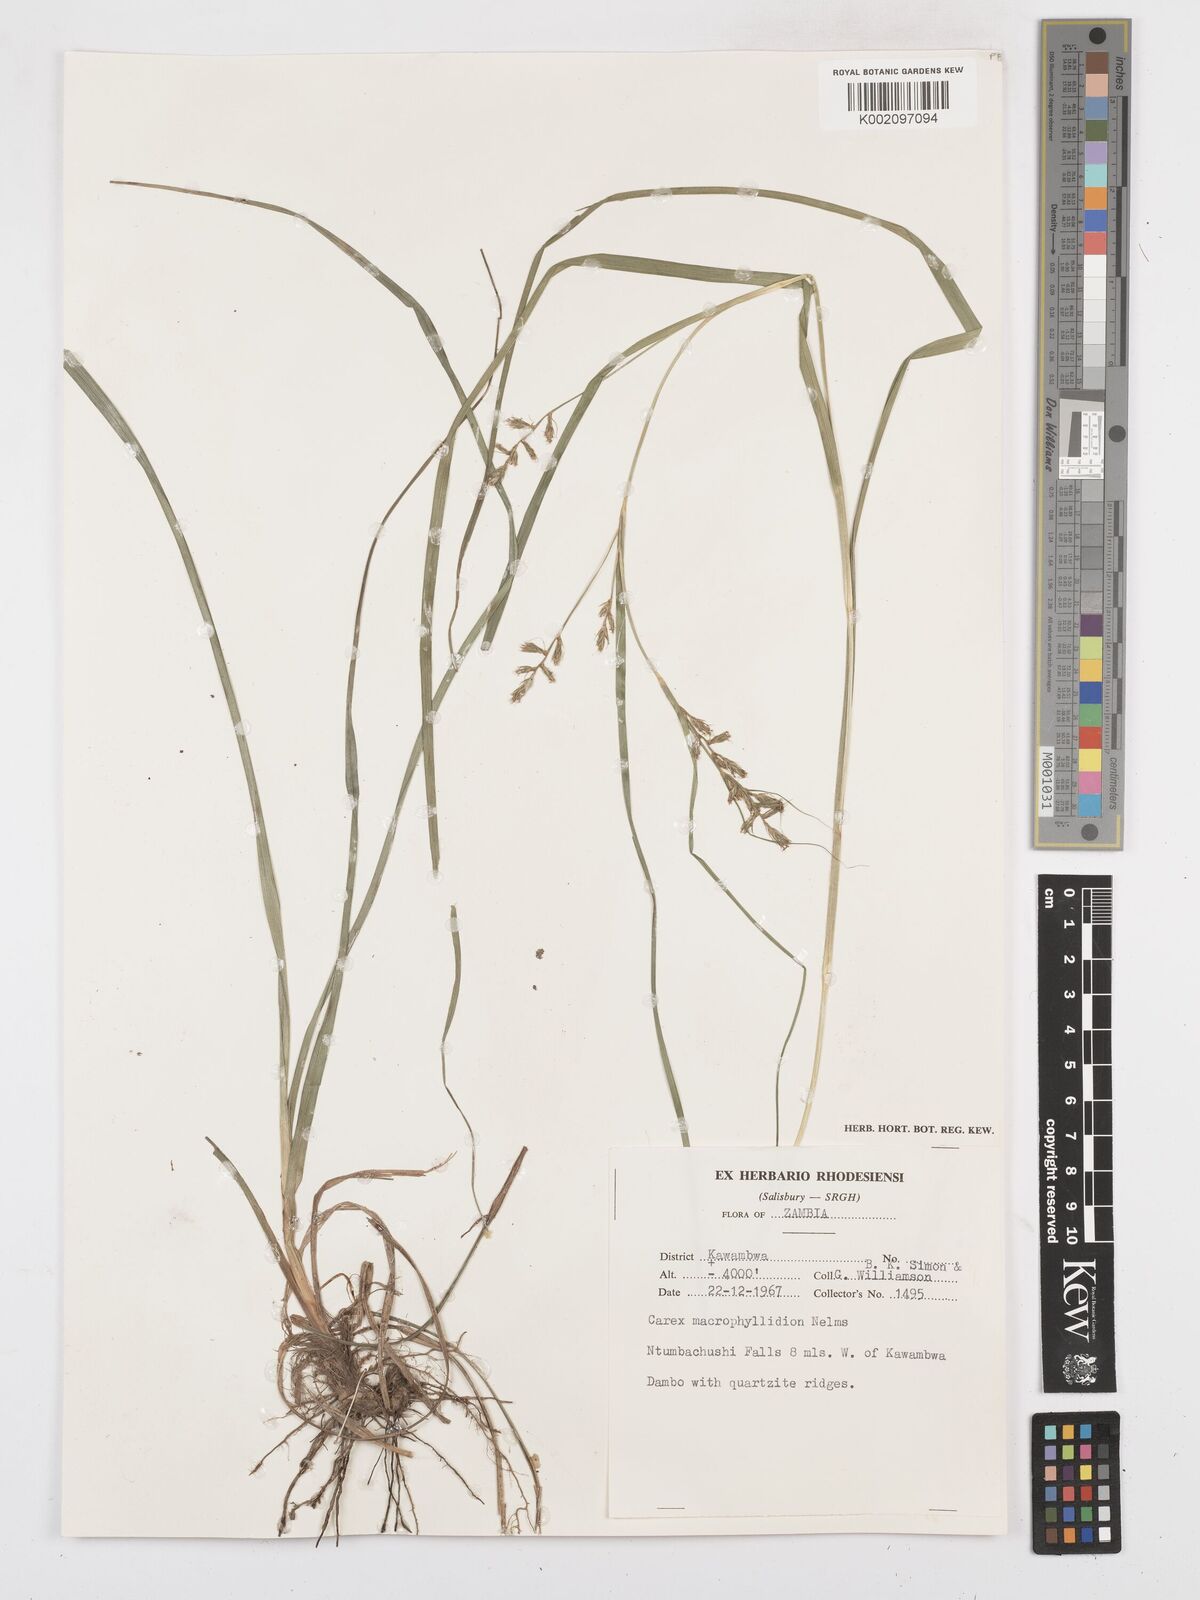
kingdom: Plantae
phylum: Tracheophyta
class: Liliopsida
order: Poales
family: Cyperaceae
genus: Carex
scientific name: Carex macrophyllidion
